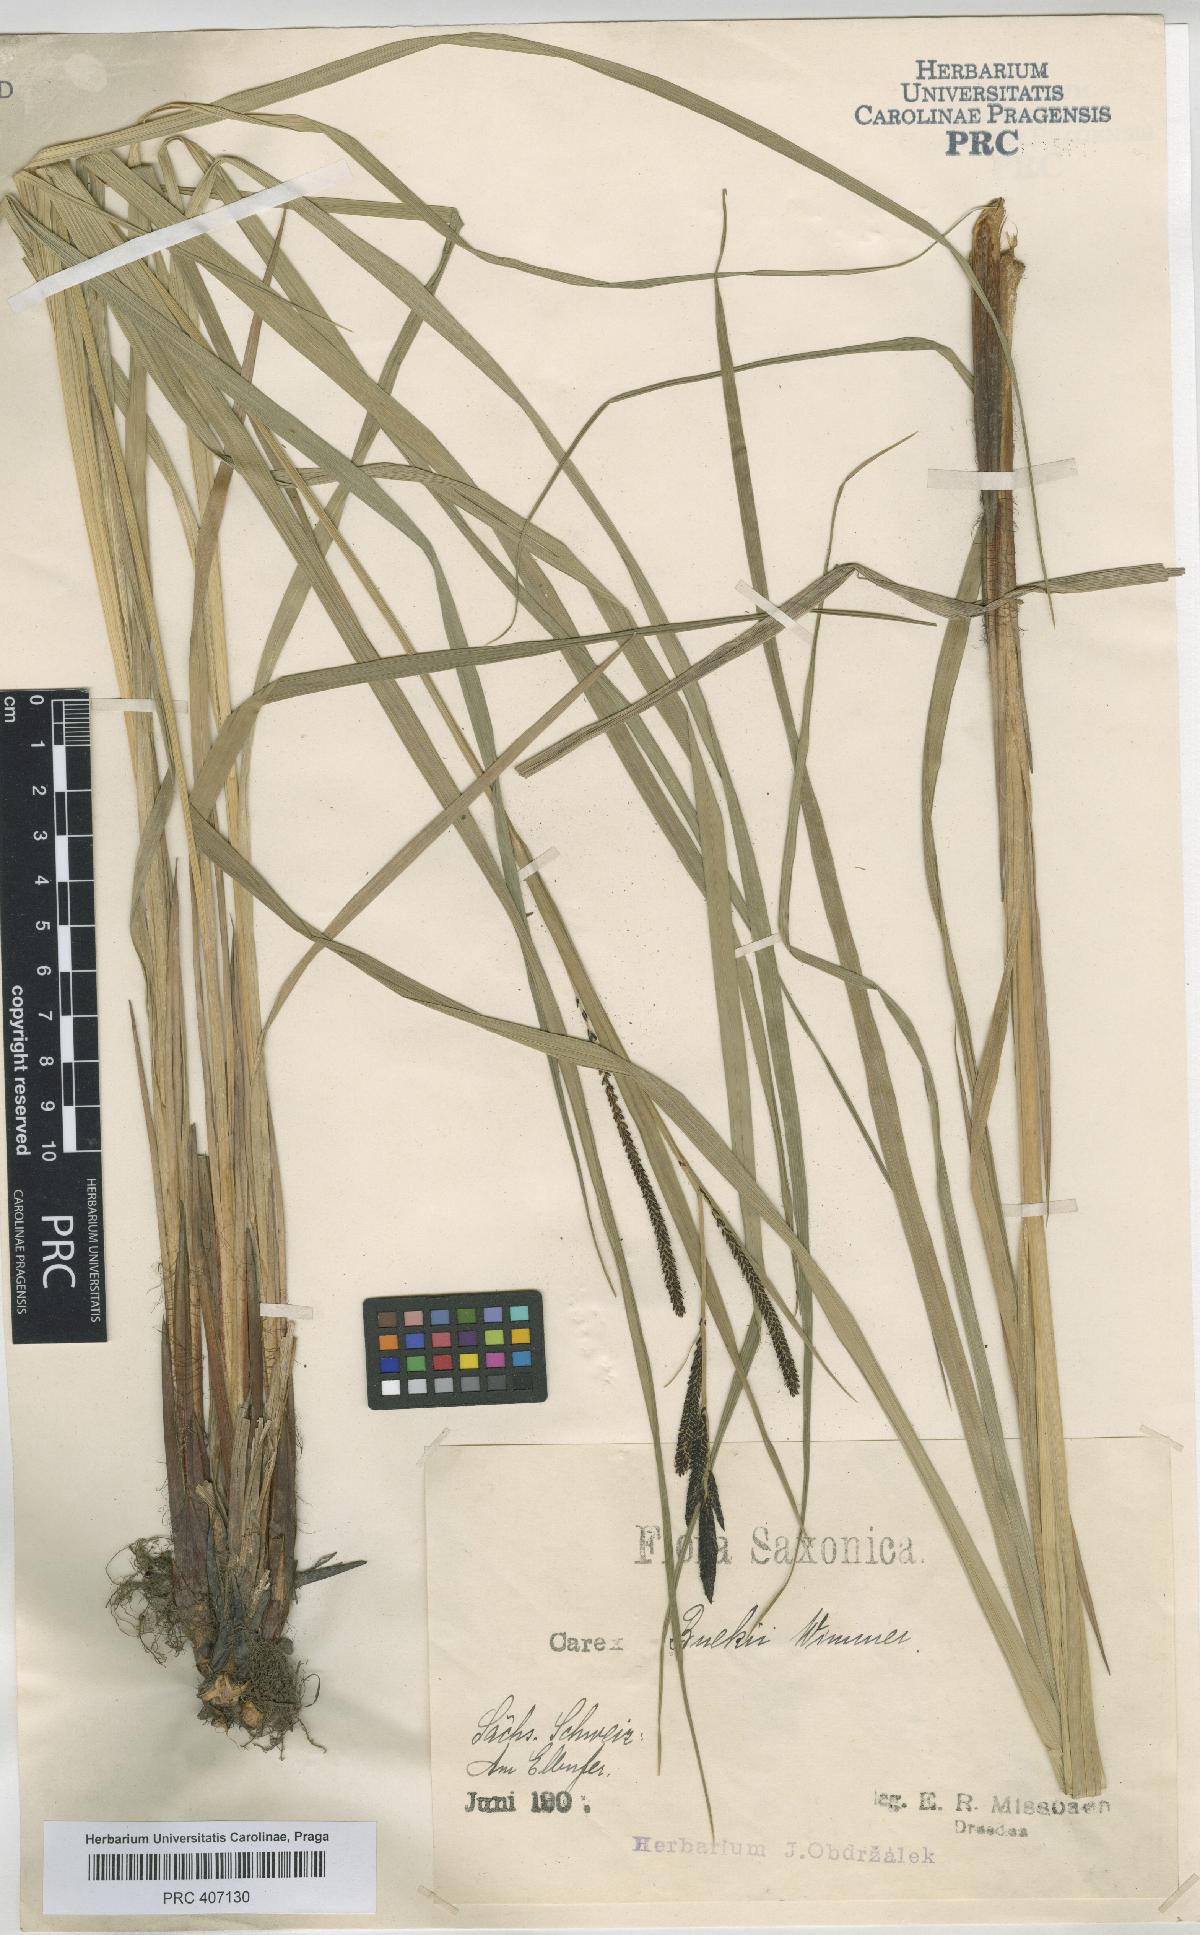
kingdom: Plantae
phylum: Tracheophyta
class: Liliopsida
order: Poales
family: Cyperaceae
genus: Carex
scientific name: Carex buekii
